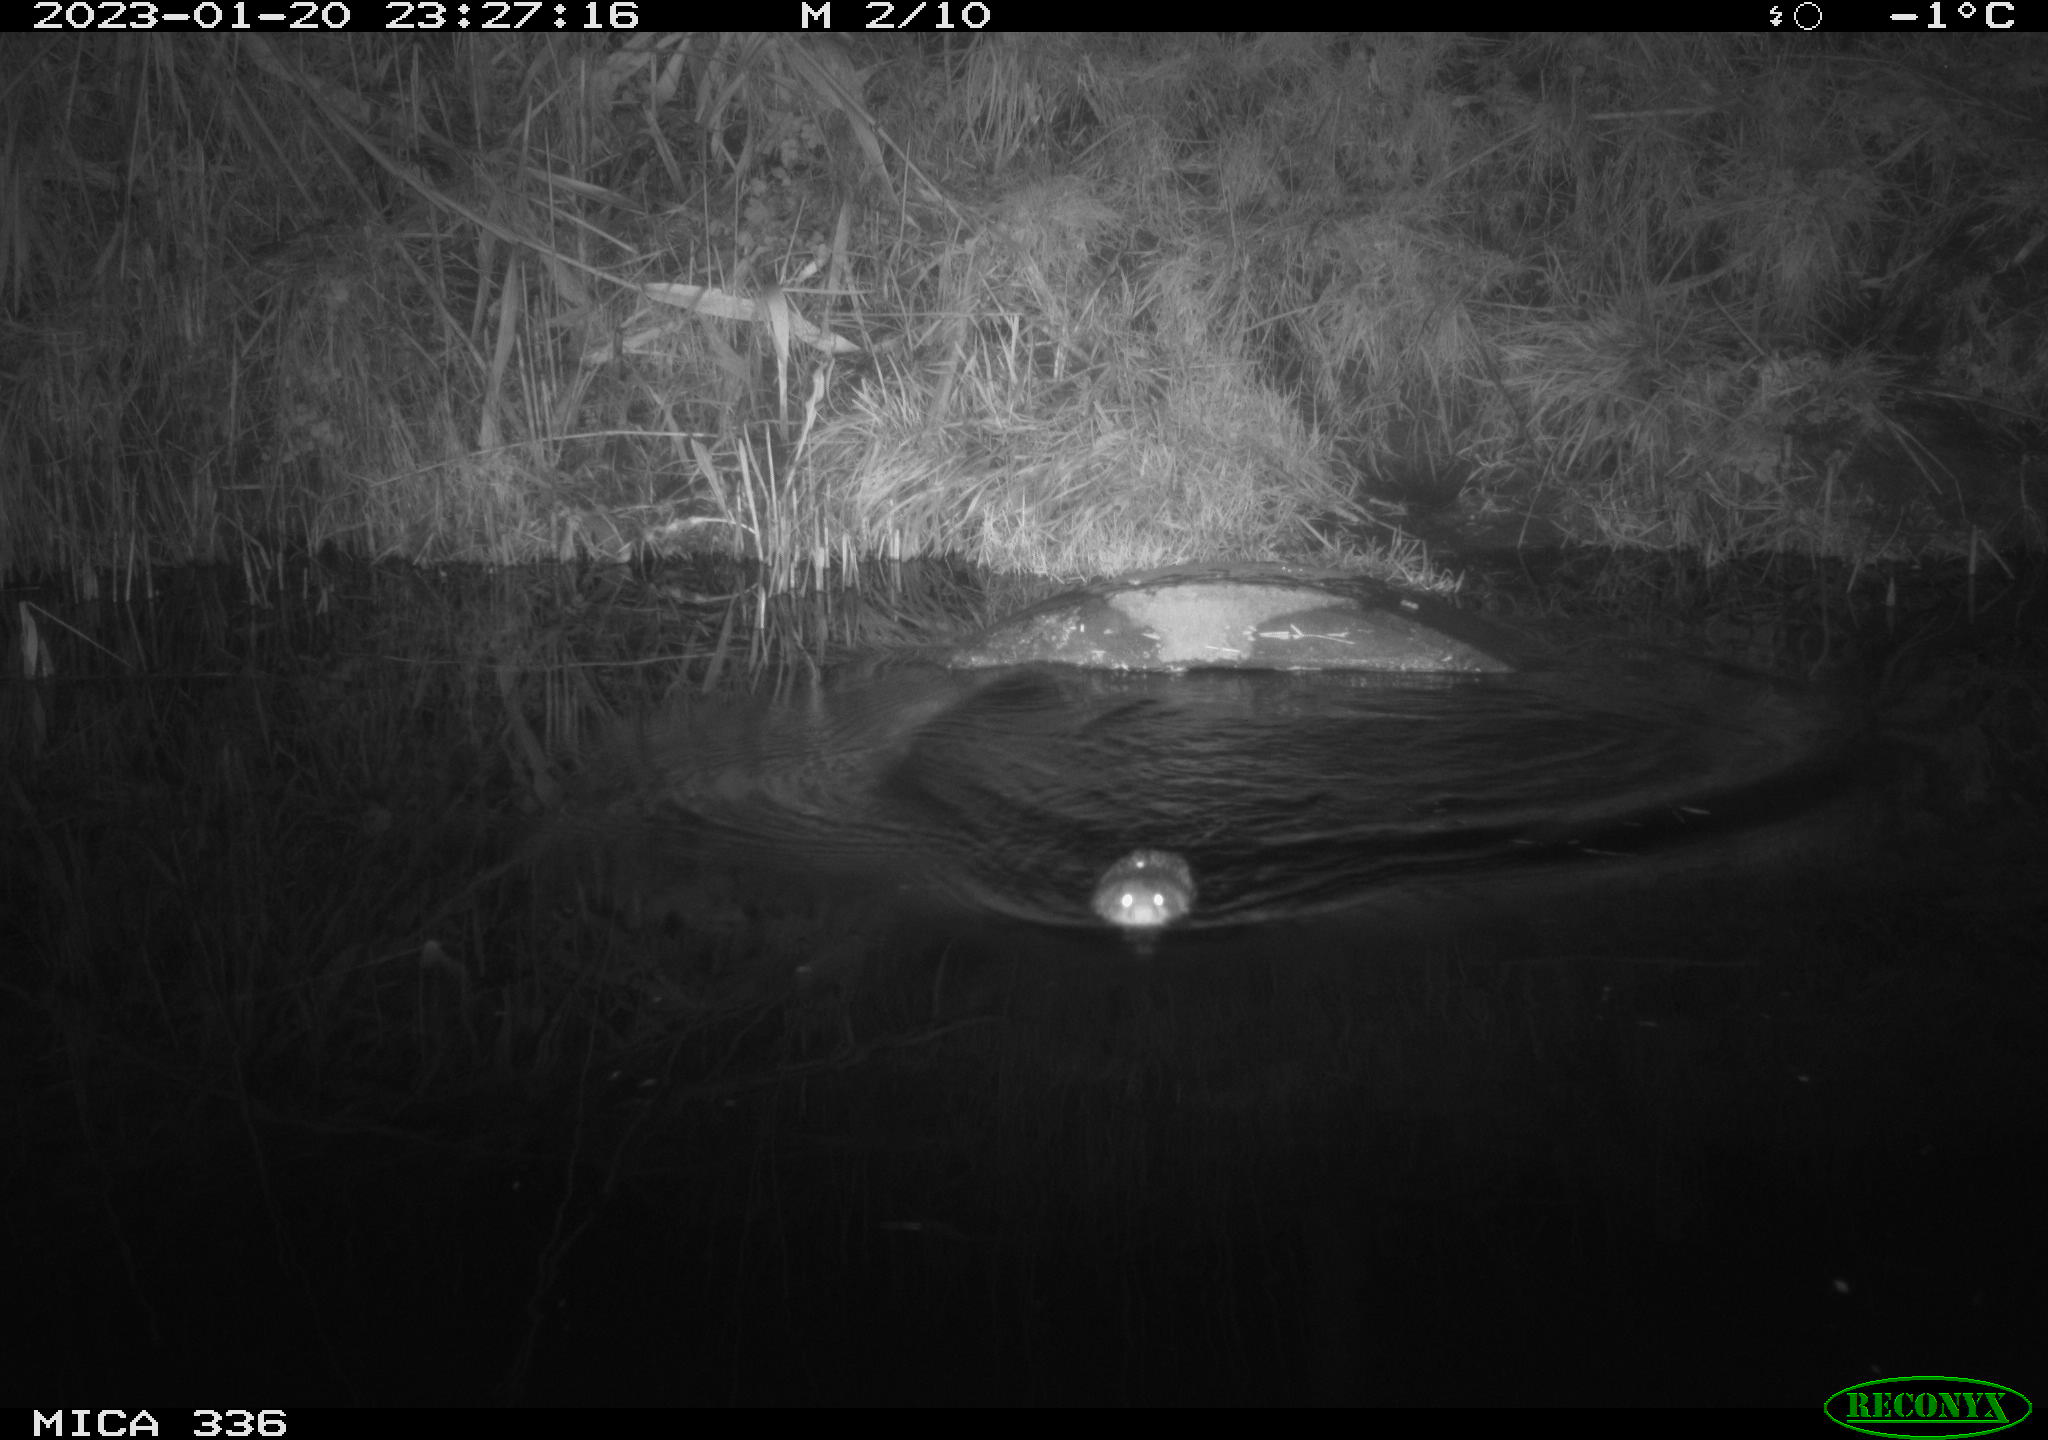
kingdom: Animalia
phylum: Chordata
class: Mammalia
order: Rodentia
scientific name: Rodentia
